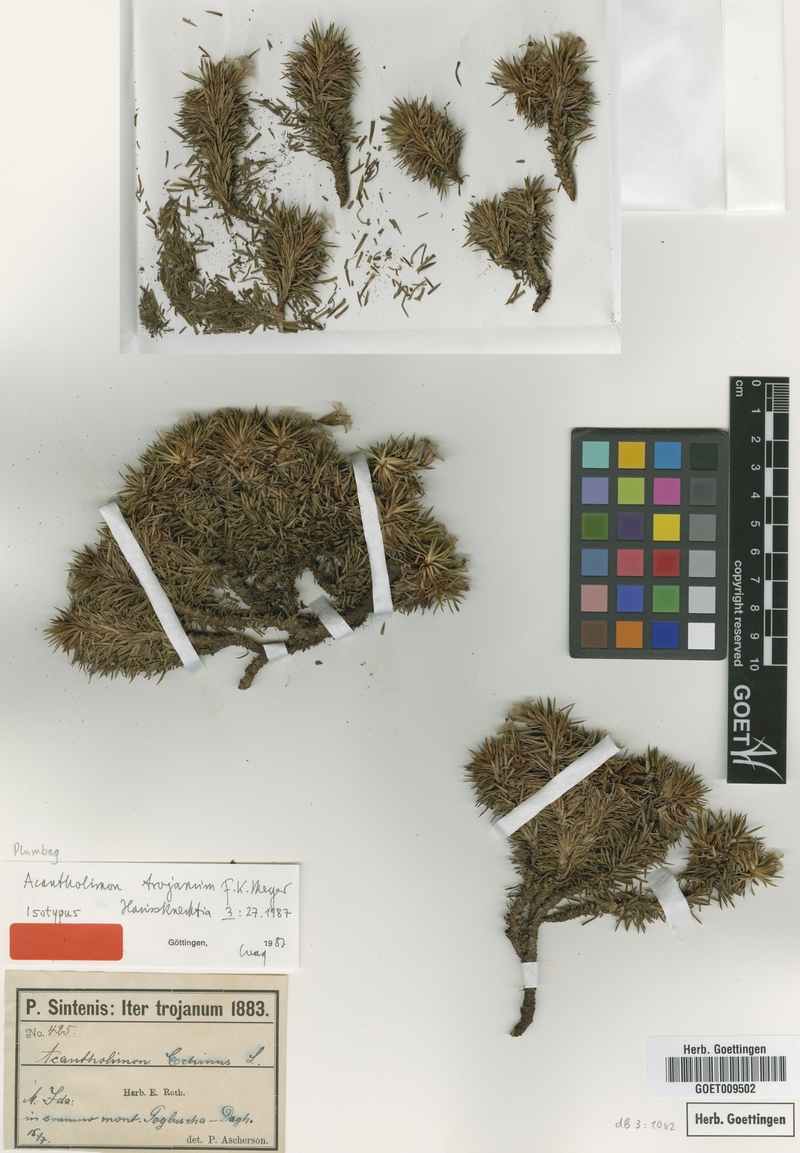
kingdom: Plantae
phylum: Tracheophyta
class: Magnoliopsida
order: Caryophyllales
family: Plumbaginaceae
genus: Acantholimon
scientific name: Acantholimon ulicinum
